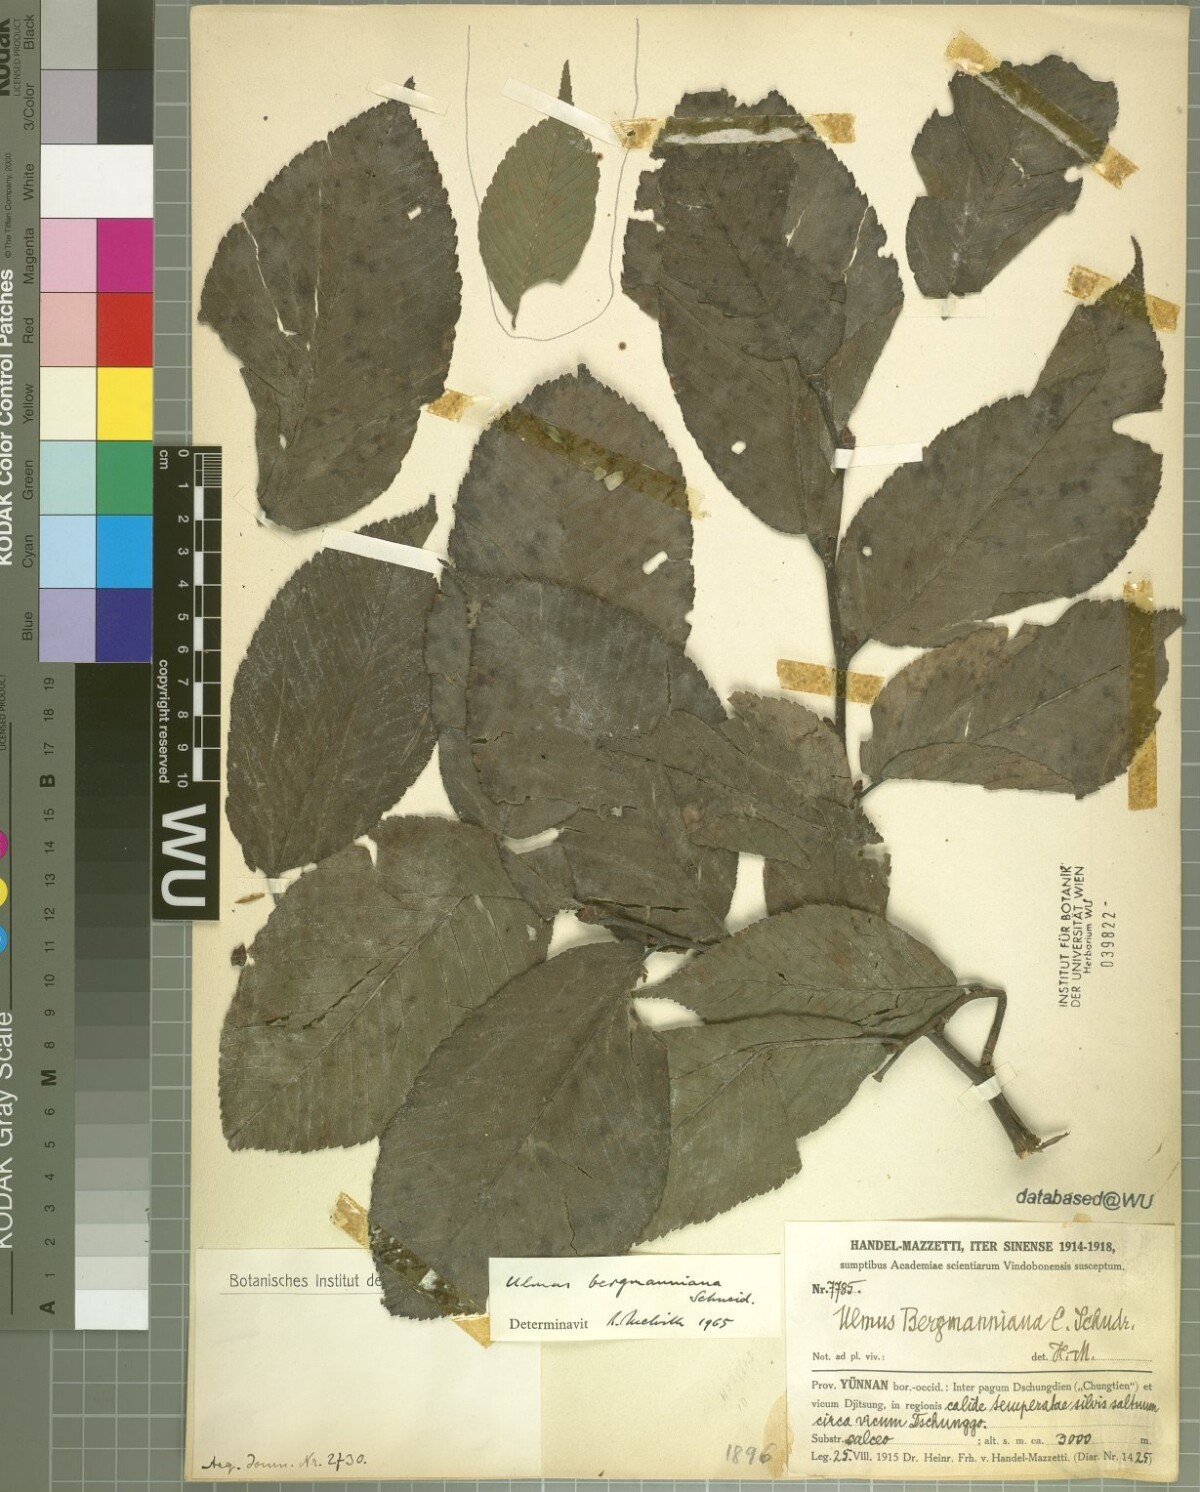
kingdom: Plantae
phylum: Tracheophyta
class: Magnoliopsida
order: Rosales
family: Ulmaceae
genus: Ulmus
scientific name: Ulmus bergmanniana
